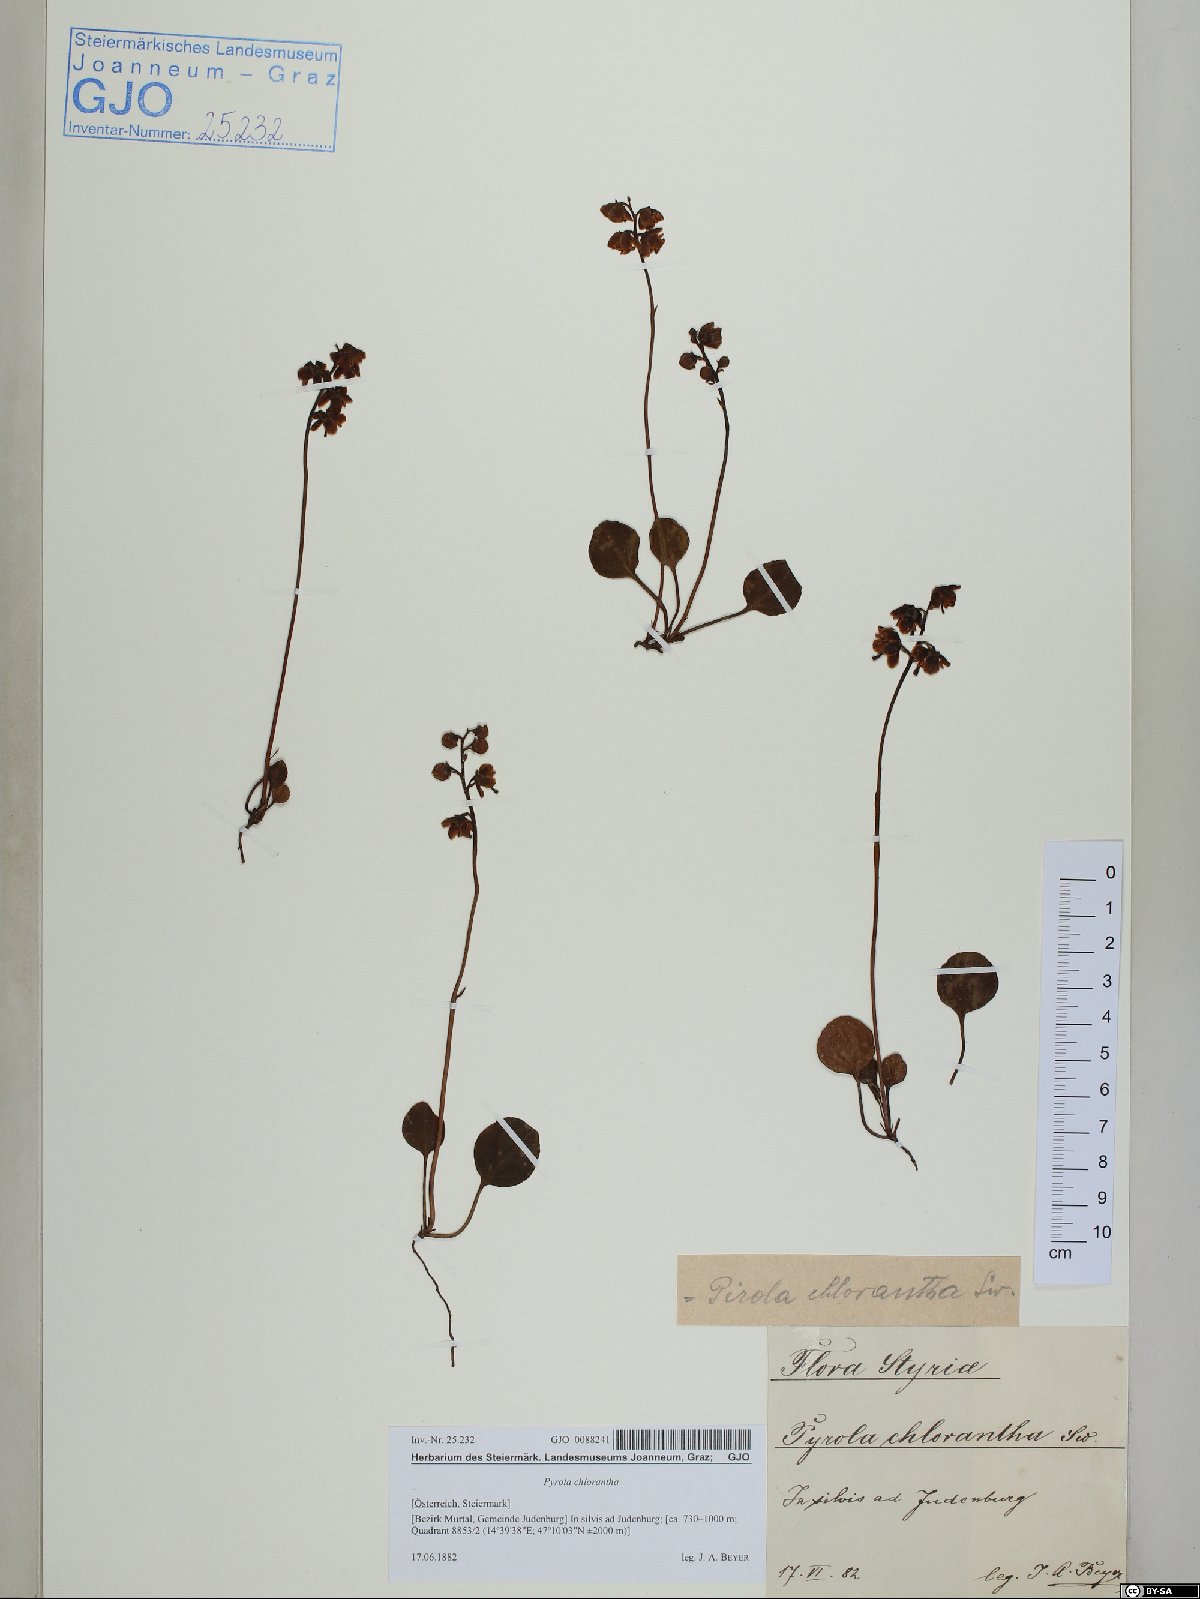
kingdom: Plantae
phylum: Tracheophyta
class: Magnoliopsida
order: Ericales
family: Ericaceae
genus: Pyrola
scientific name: Pyrola chlorantha
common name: Green wintergreen
